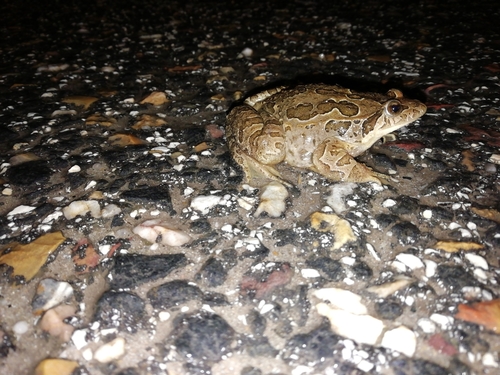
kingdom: Animalia
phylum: Chordata
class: Amphibia
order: Anura
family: Alytidae
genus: Discoglossus
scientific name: Discoglossus galganoi
